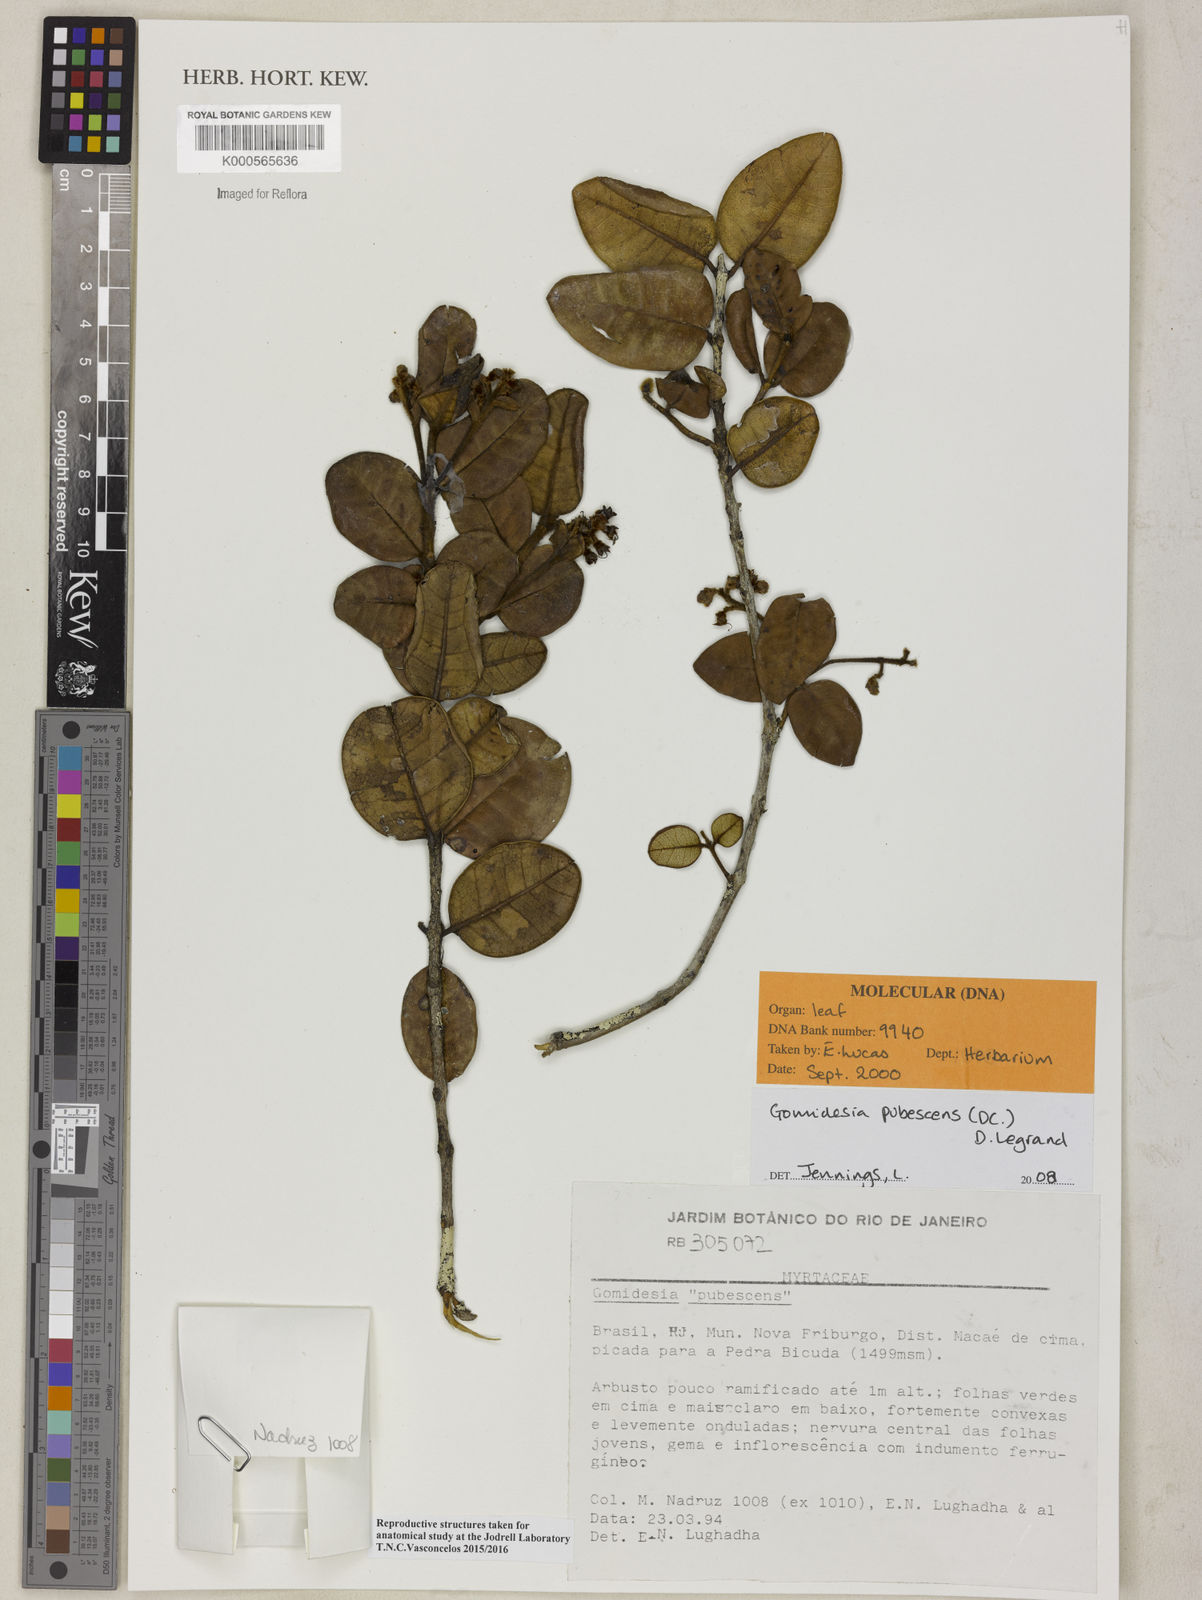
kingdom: Plantae
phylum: Tracheophyta
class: Magnoliopsida
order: Myrtales
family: Myrtaceae
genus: Myrcia
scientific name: Myrcia pubescens
